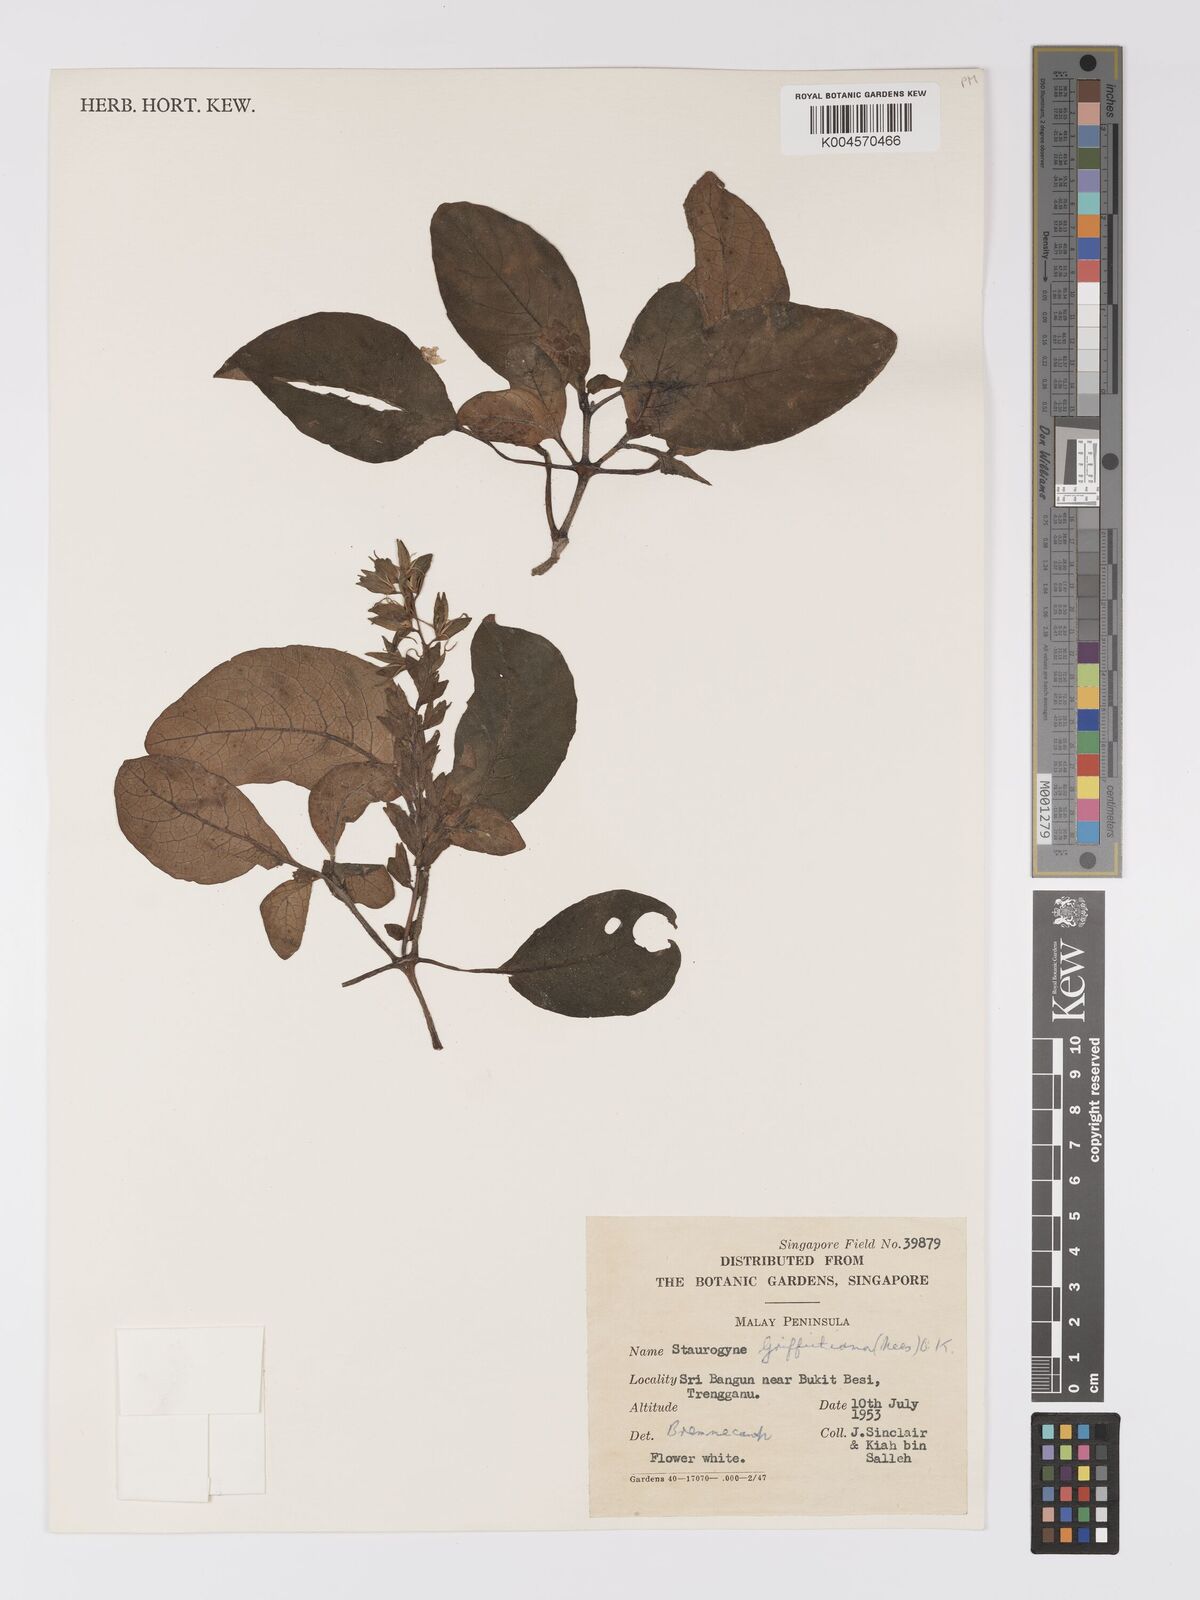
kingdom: Plantae
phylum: Tracheophyta
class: Magnoliopsida
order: Lamiales
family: Acanthaceae
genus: Staurogyne
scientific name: Staurogyne griffithiana
